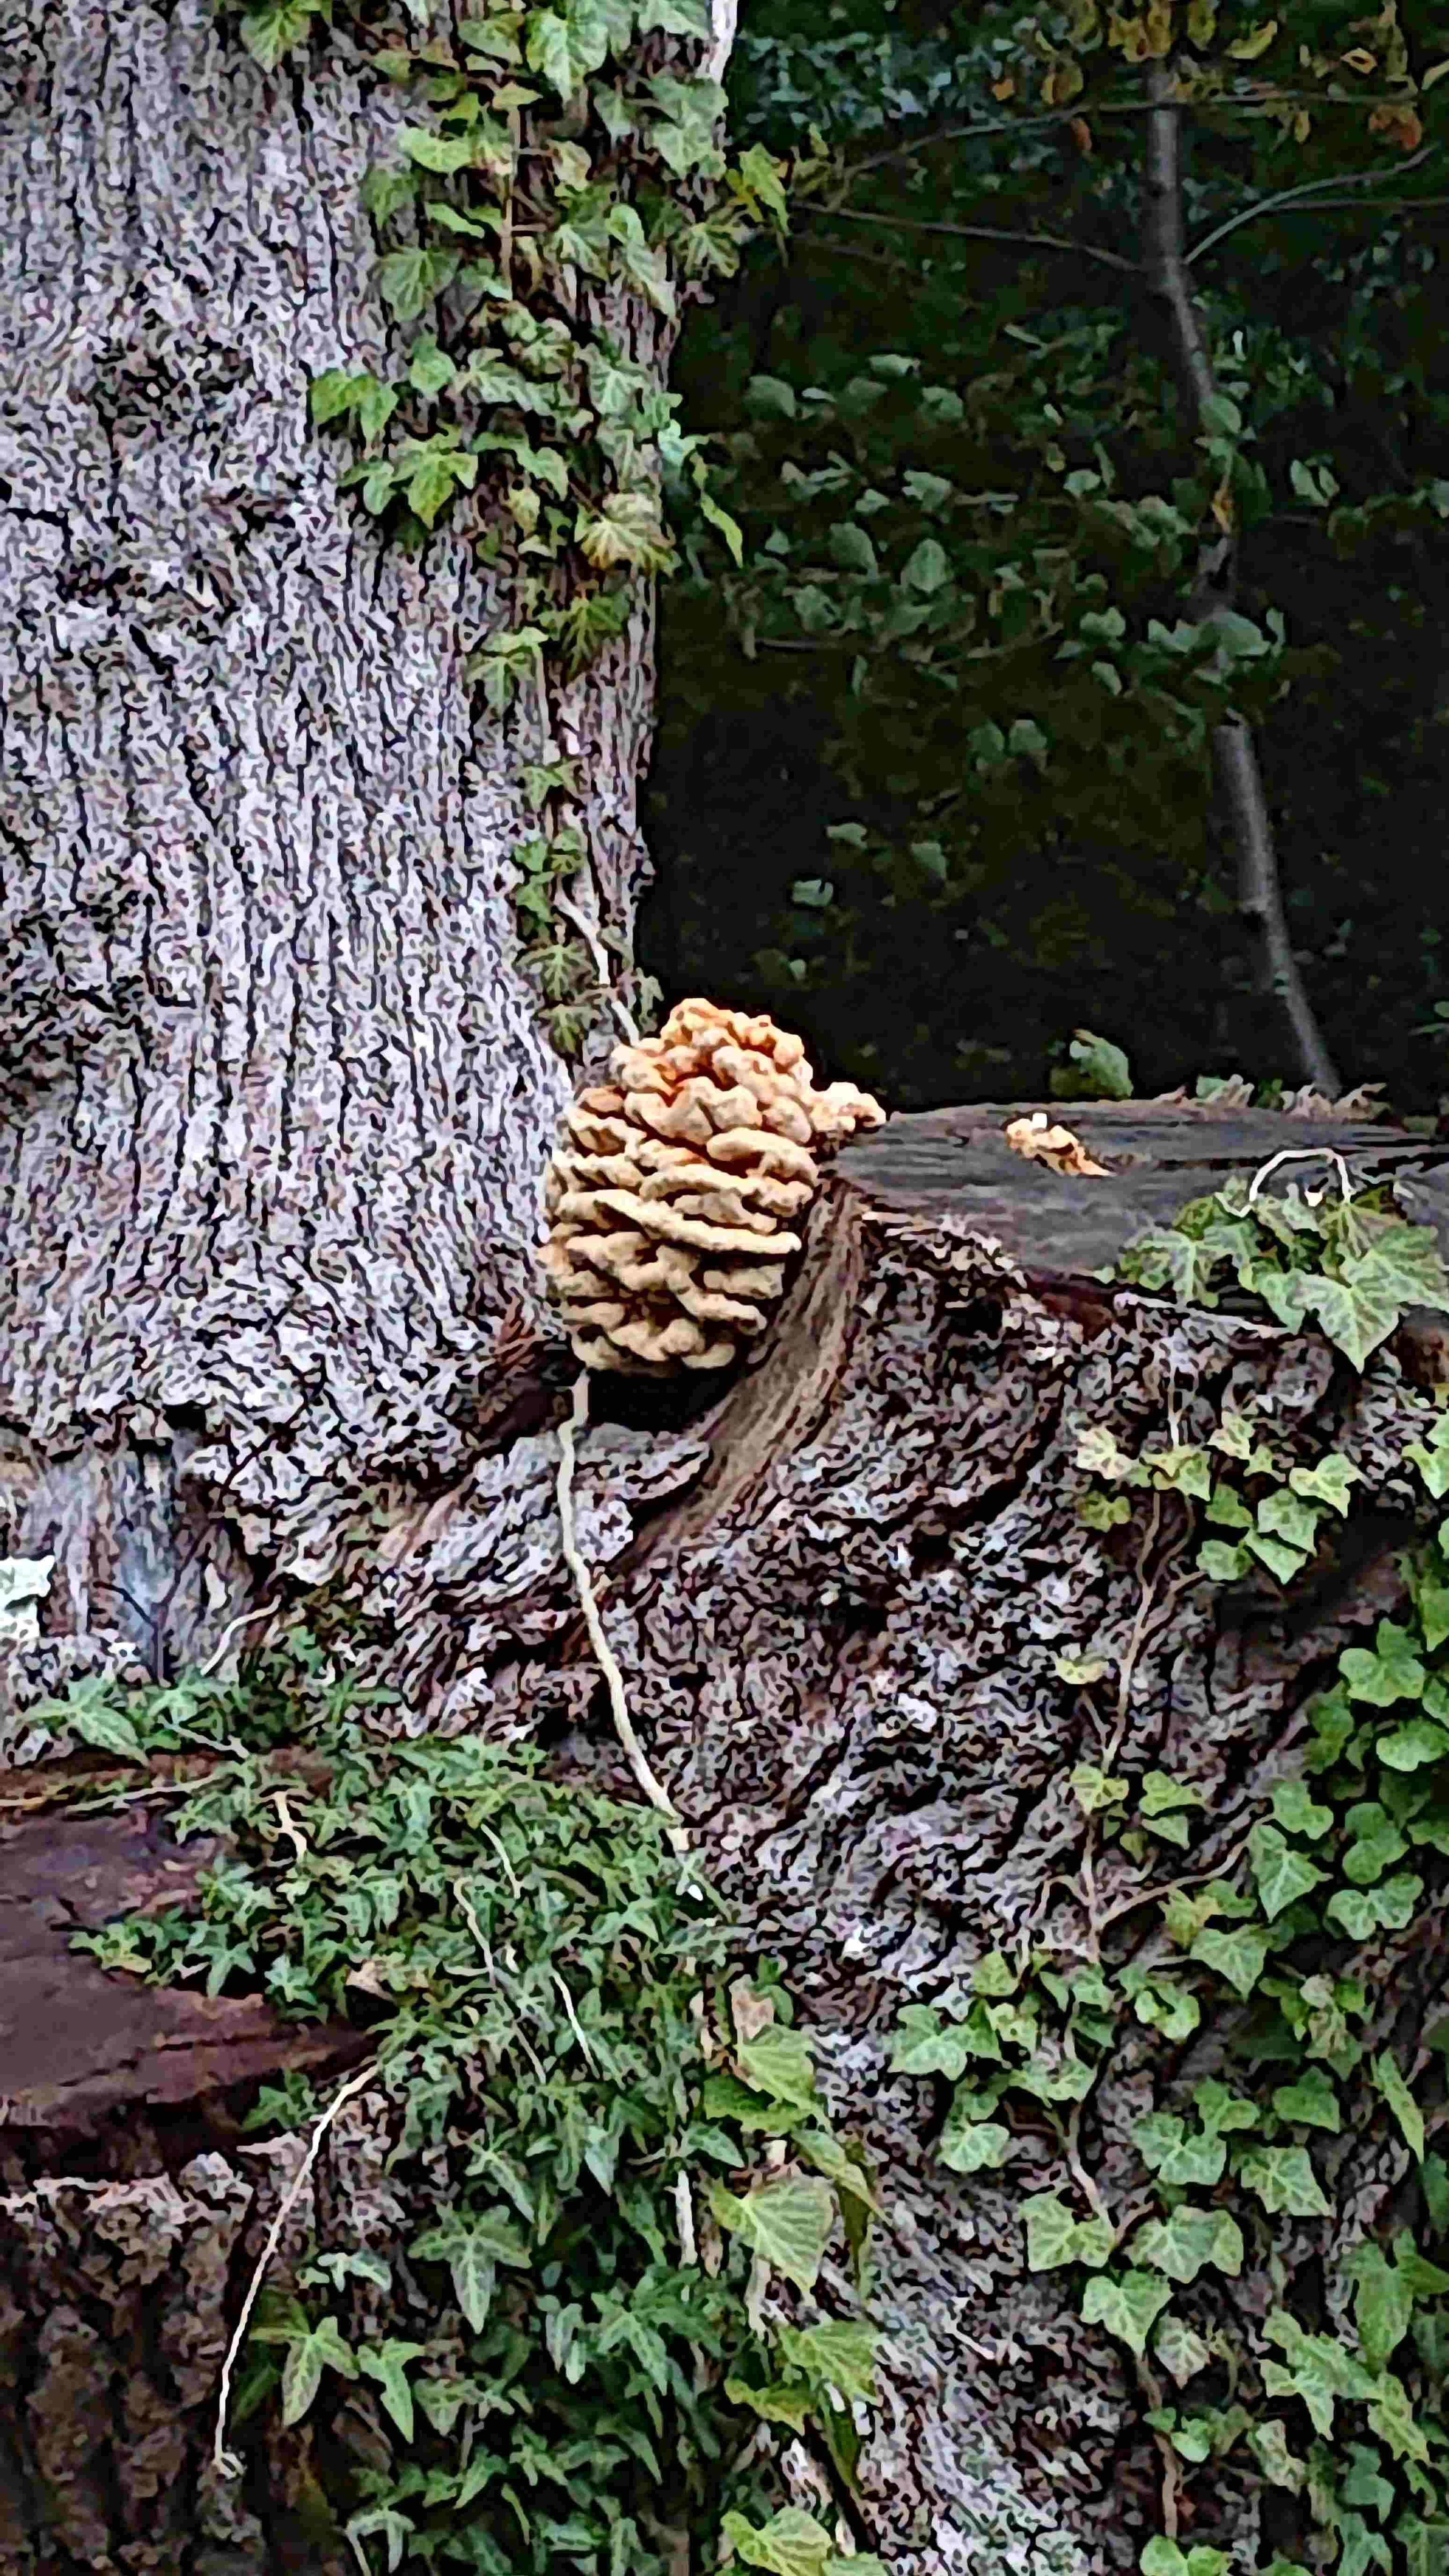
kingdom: Fungi
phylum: Basidiomycota
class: Agaricomycetes
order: Polyporales
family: Laetiporaceae
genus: Laetiporus
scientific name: Laetiporus sulphureus
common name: svovlporesvamp
